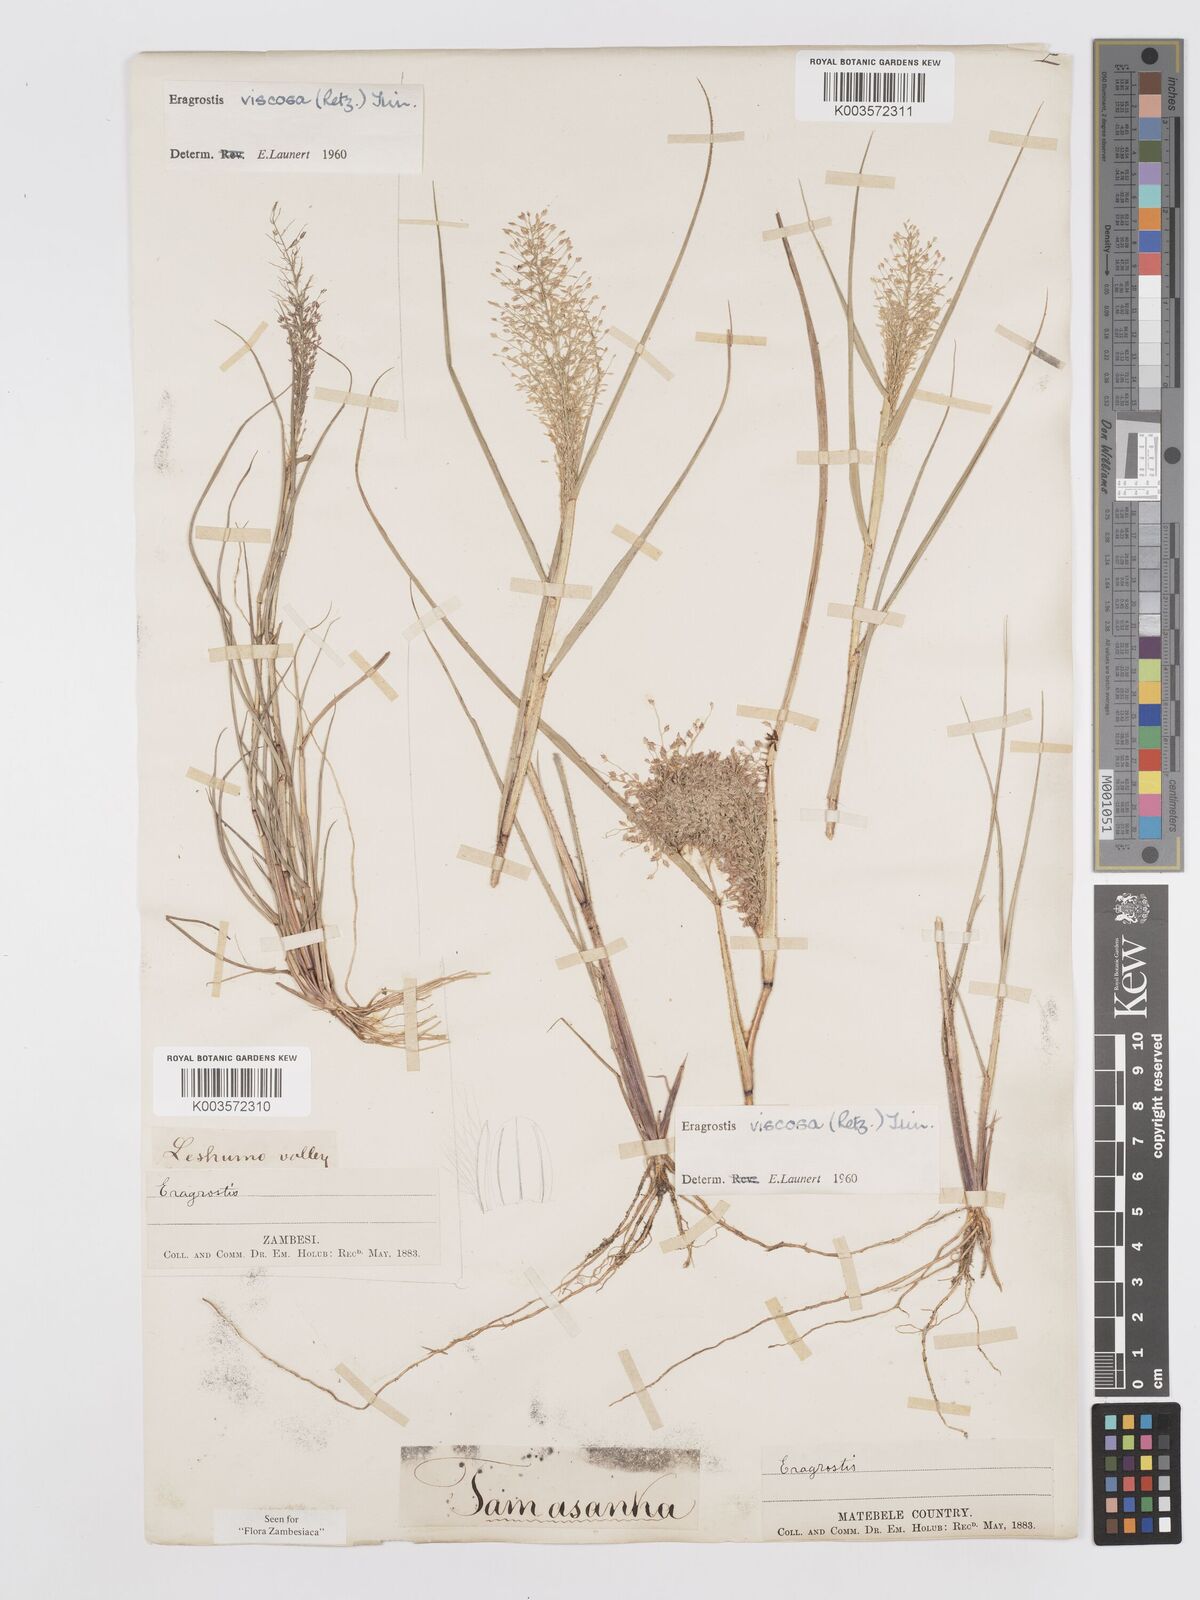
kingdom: Plantae
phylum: Tracheophyta
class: Liliopsida
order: Poales
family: Poaceae
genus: Eragrostis
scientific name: Eragrostis
